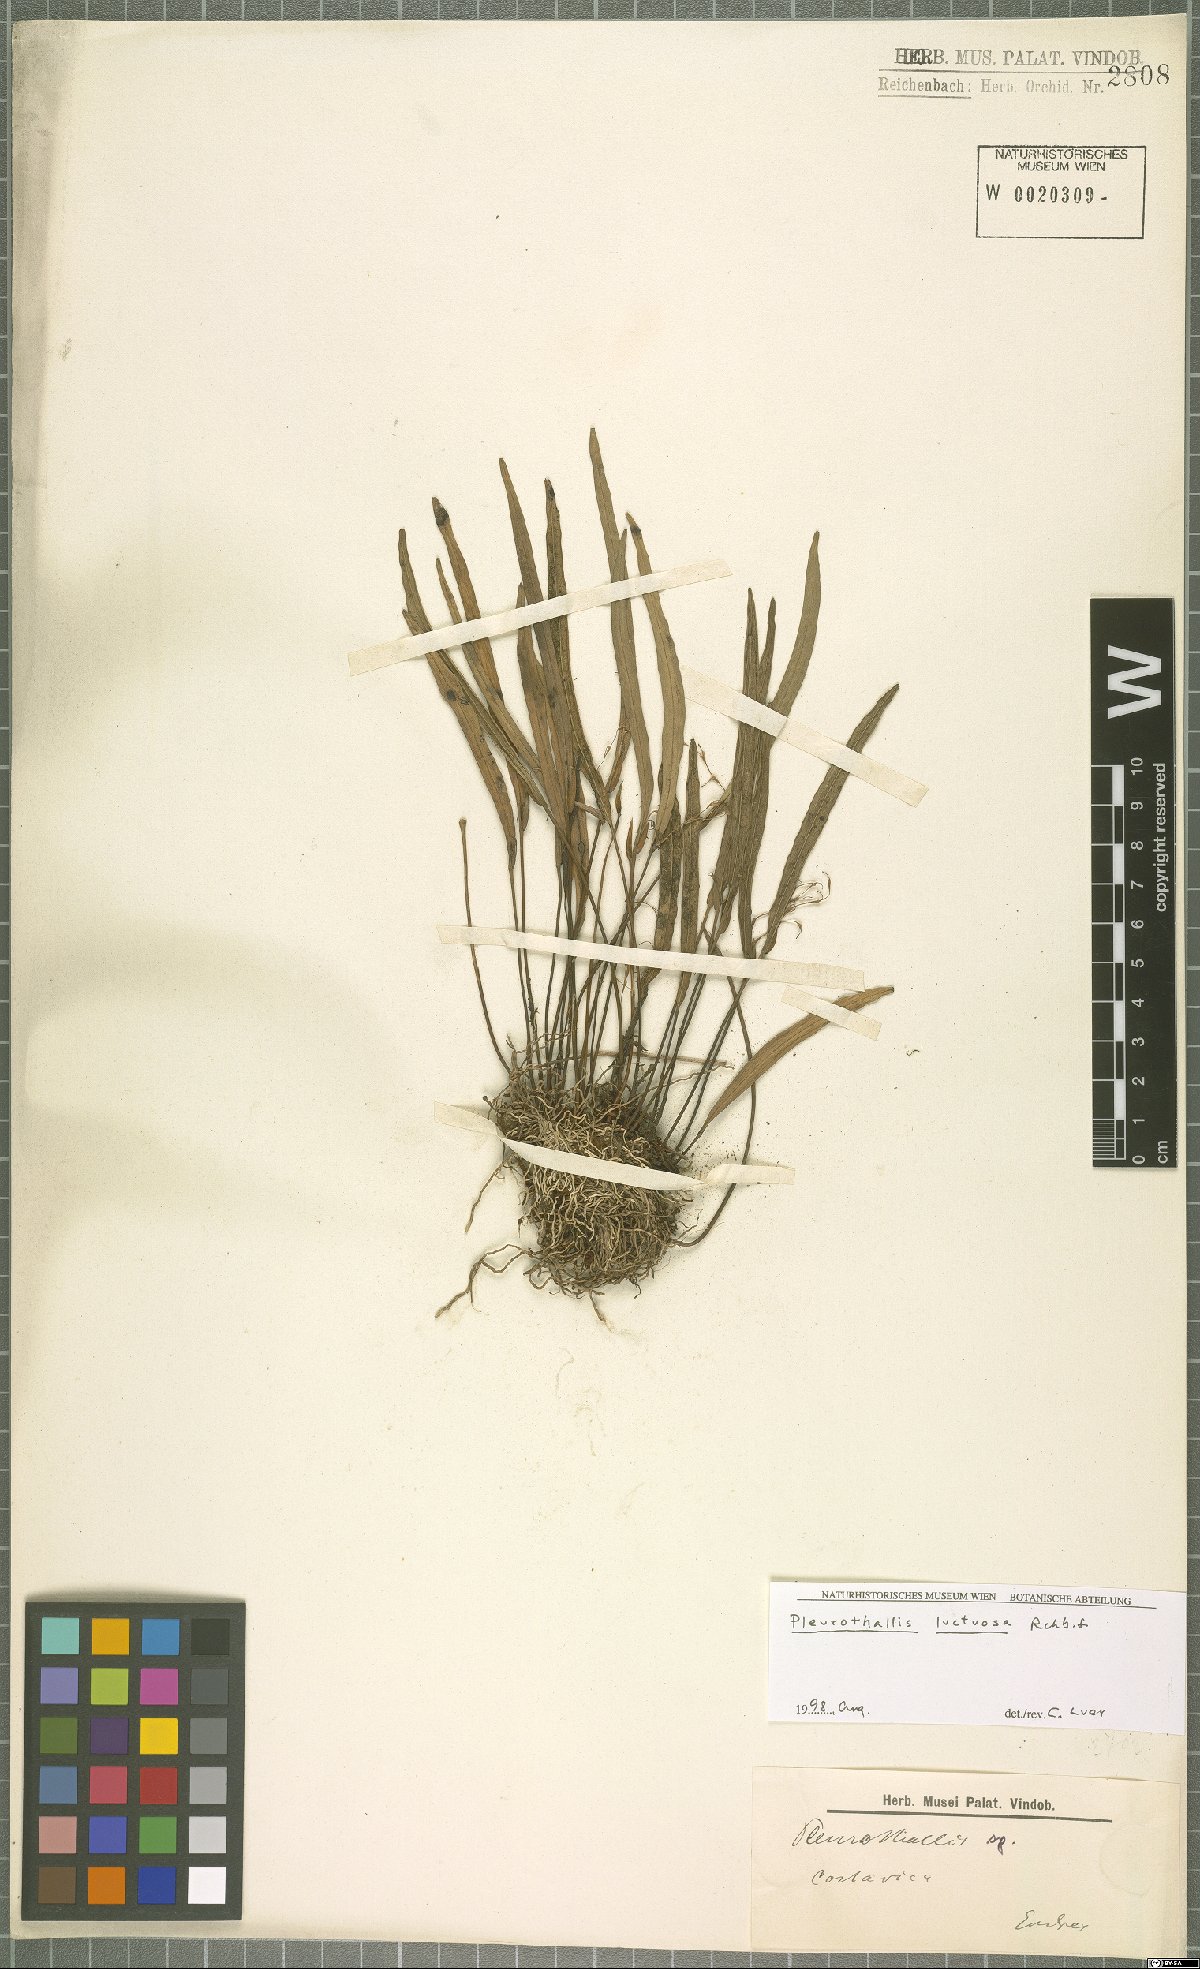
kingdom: Plantae
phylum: Tracheophyta
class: Liliopsida
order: Asparagales
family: Orchidaceae
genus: Pleurothallis
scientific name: Pleurothallis luctuosa
